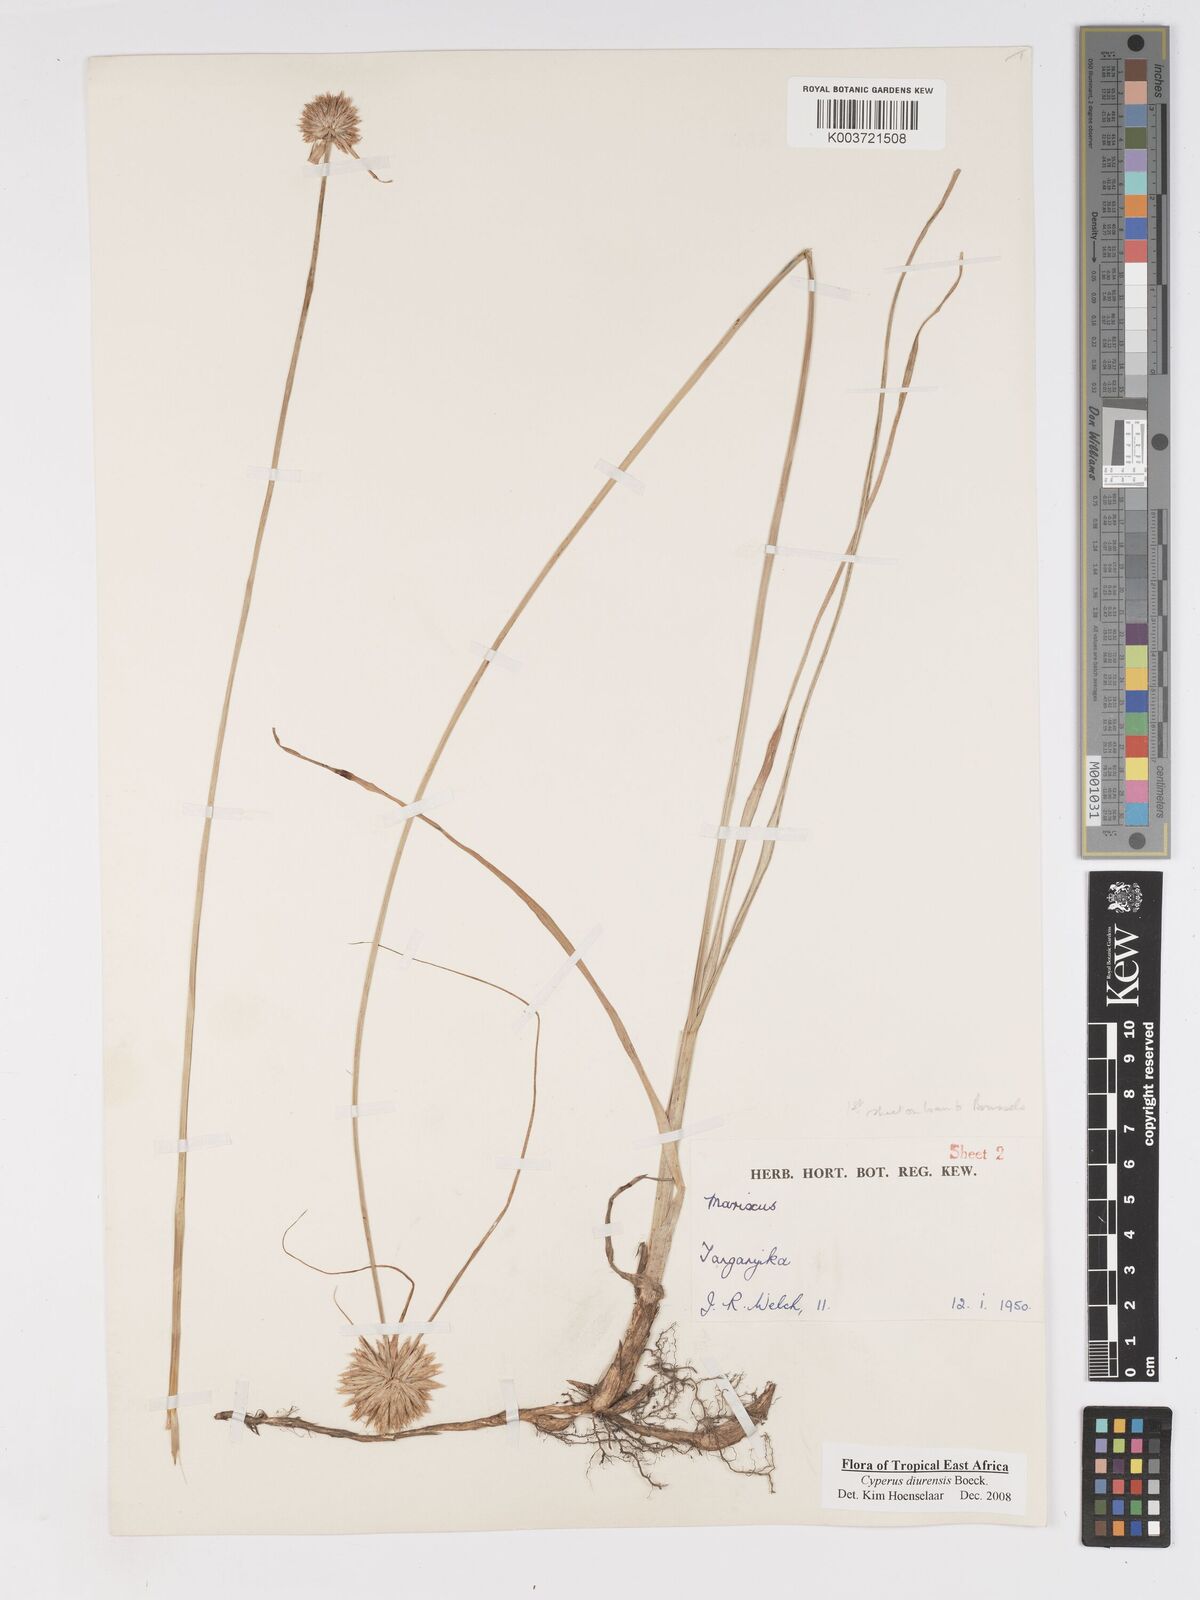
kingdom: Plantae
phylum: Tracheophyta
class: Liliopsida
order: Poales
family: Cyperaceae
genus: Cyperus
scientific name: Cyperus diurensis
